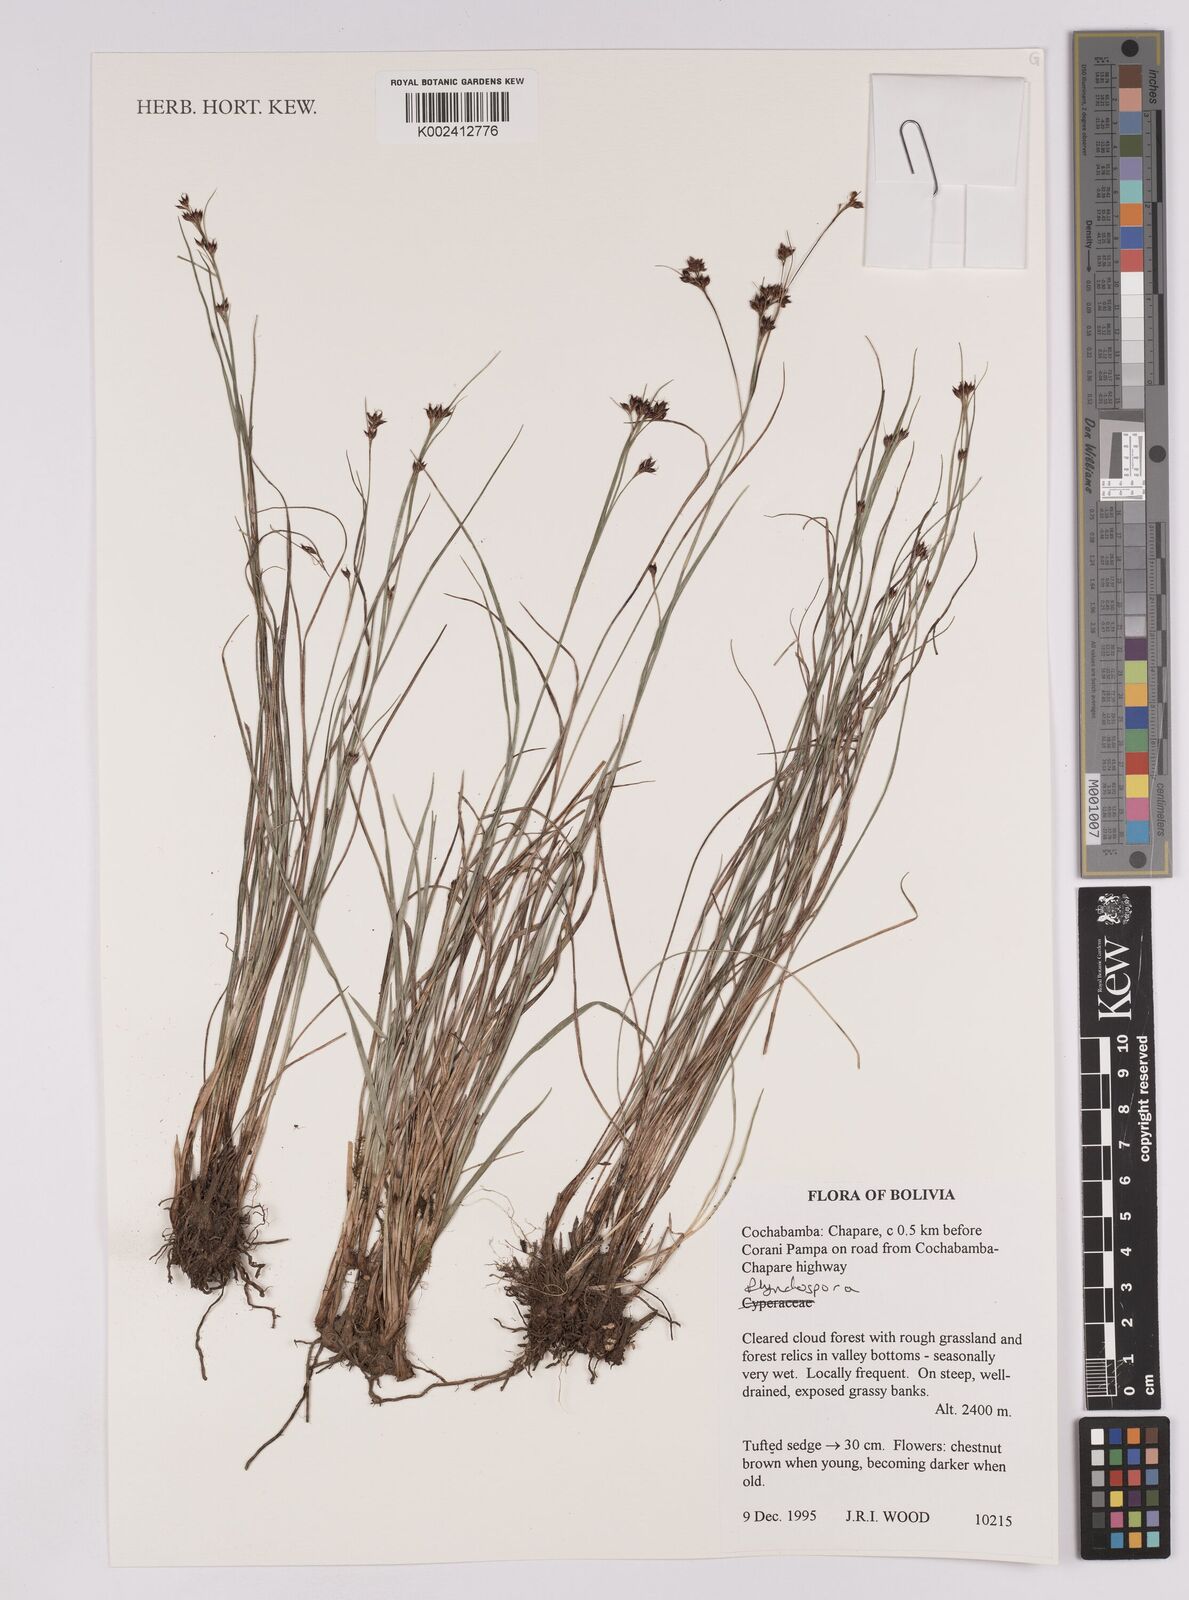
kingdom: Plantae
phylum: Tracheophyta
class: Liliopsida
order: Poales
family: Cyperaceae
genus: Rhynchospora
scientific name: Rhynchospora
